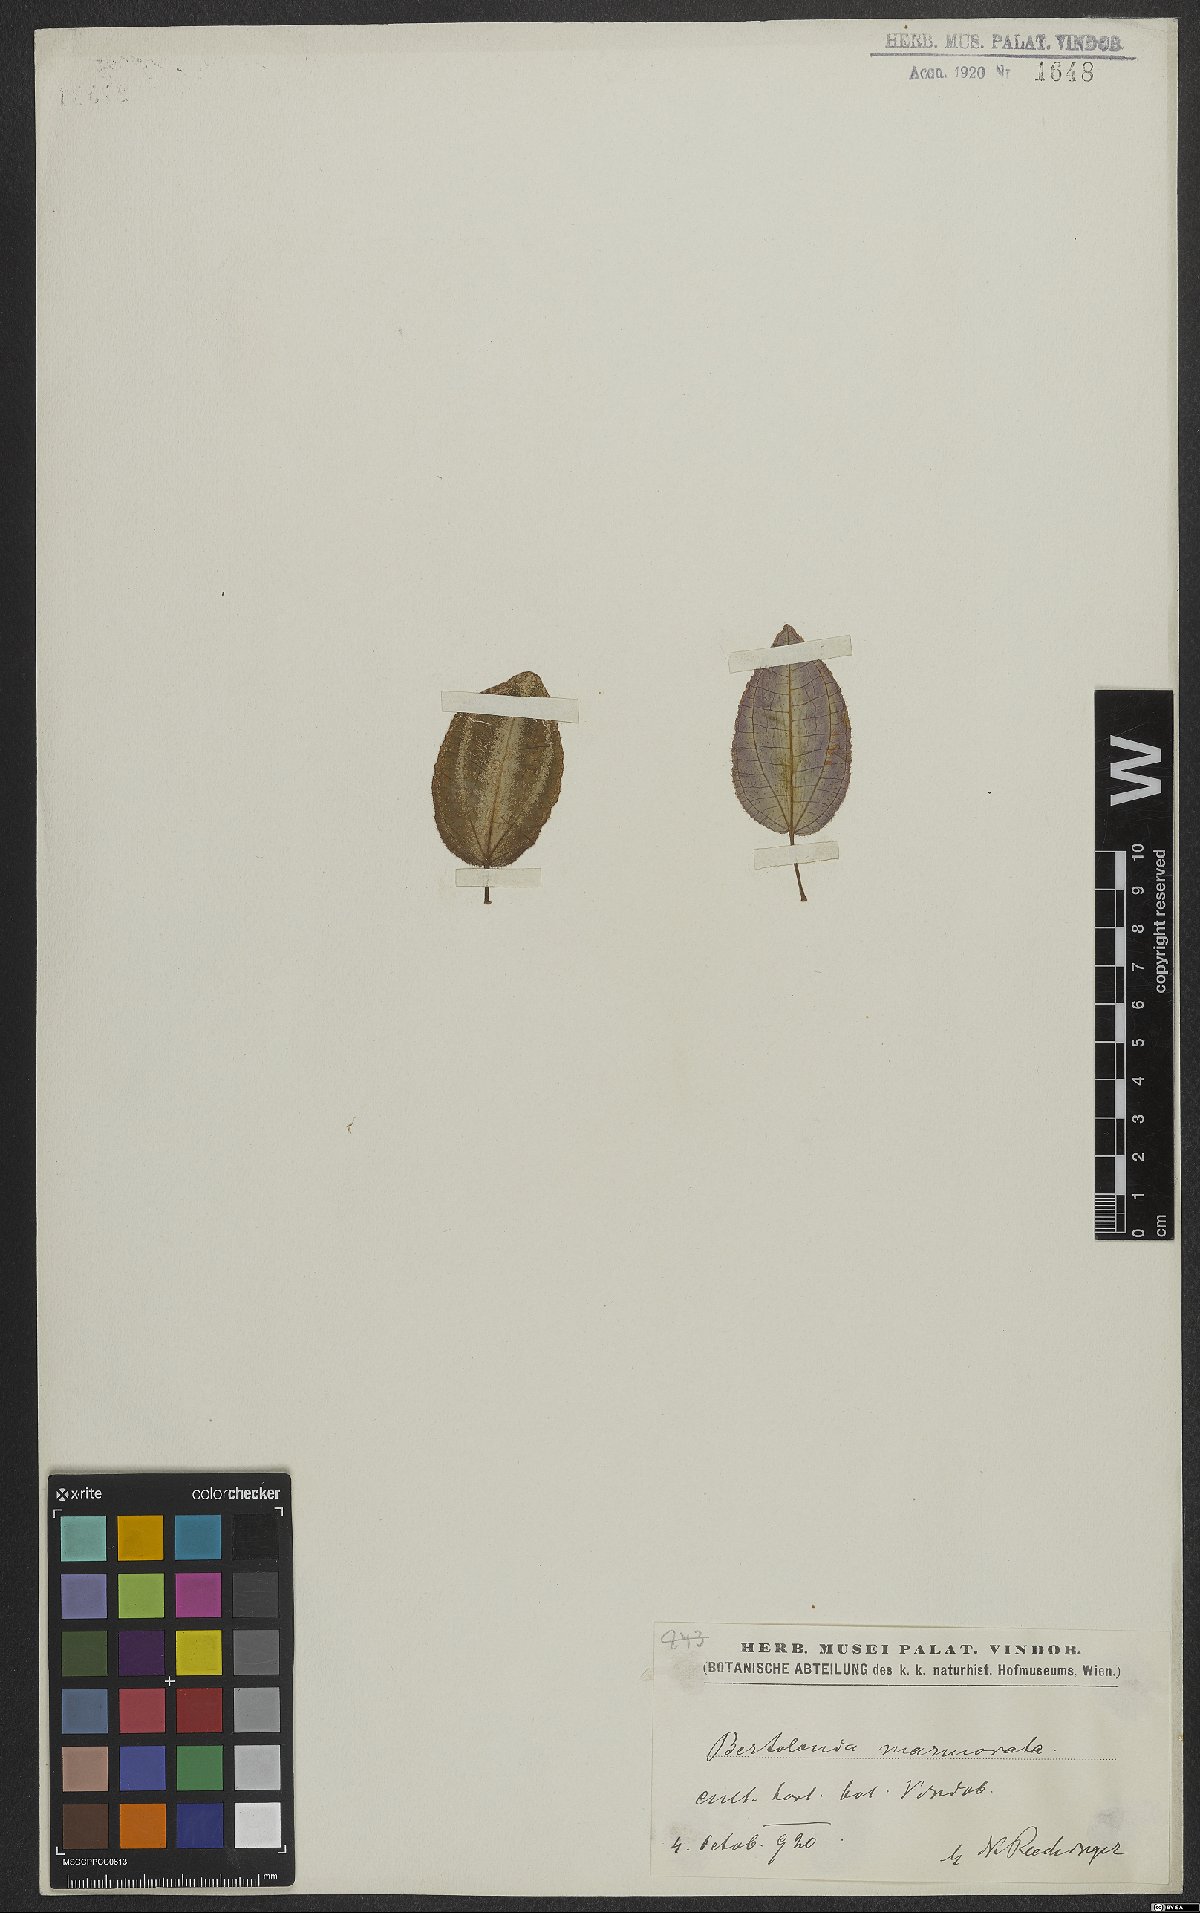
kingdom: Plantae
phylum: Tracheophyta
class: Magnoliopsida
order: Myrtales
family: Melastomataceae
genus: Bertolonia
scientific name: Bertolonia maculata
